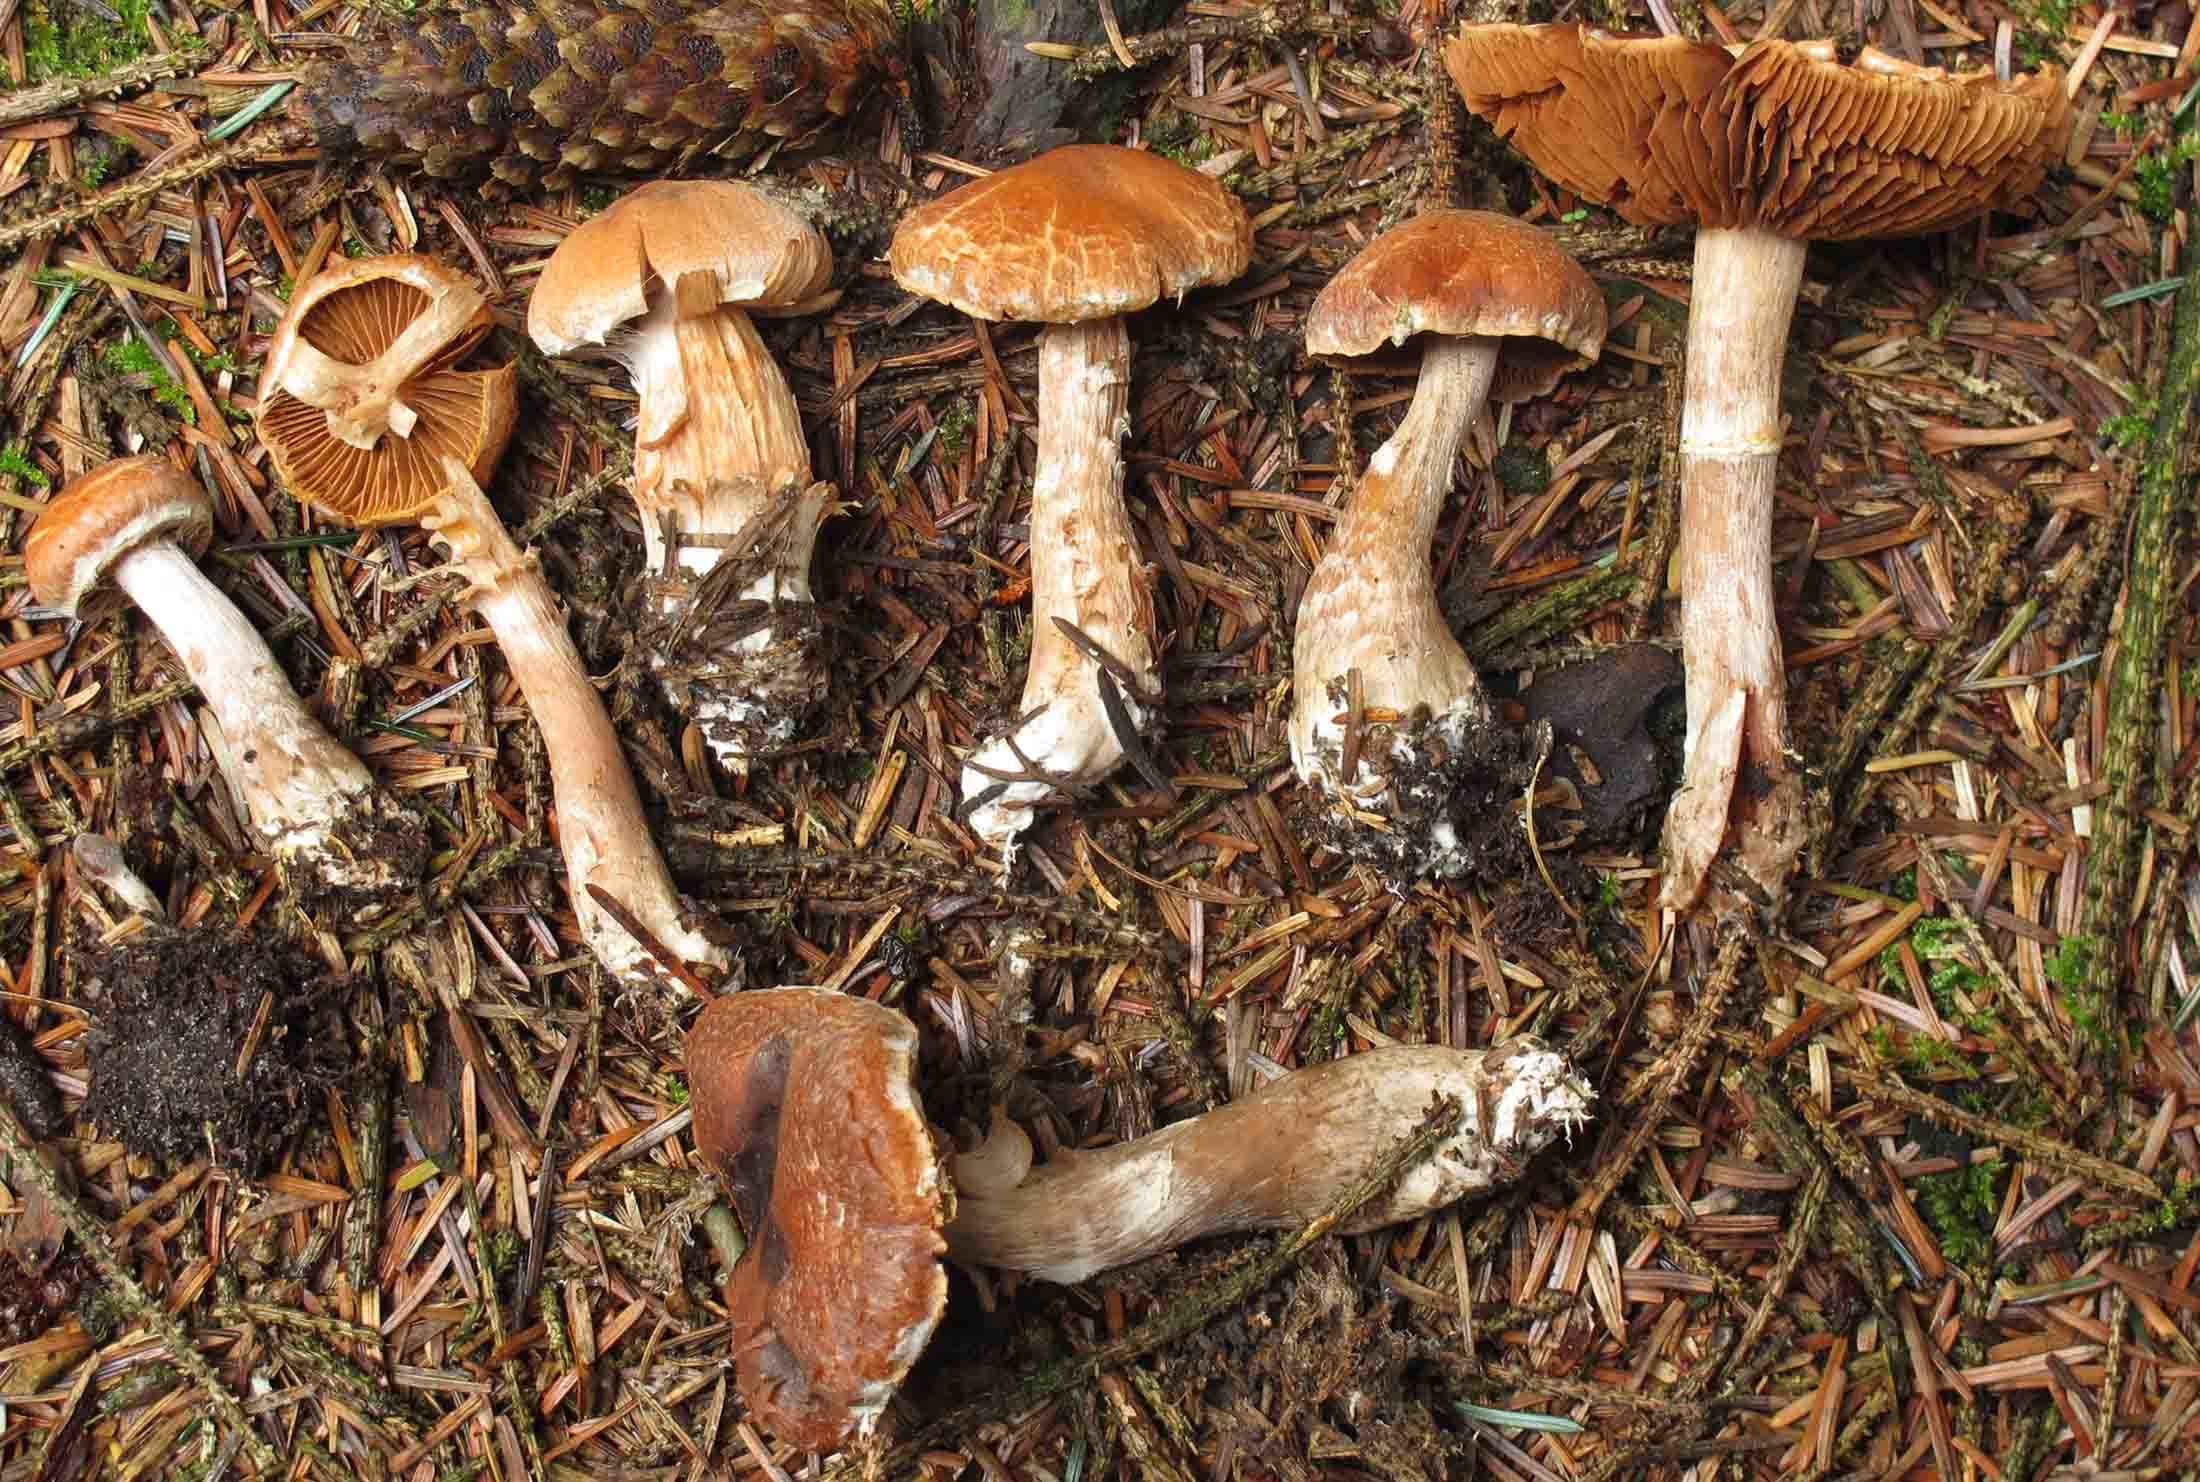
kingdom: Fungi
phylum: Basidiomycota
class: Agaricomycetes
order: Agaricales
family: Cortinariaceae
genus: Cortinarius
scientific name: Cortinarius laniger
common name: teglbladet slørhat
